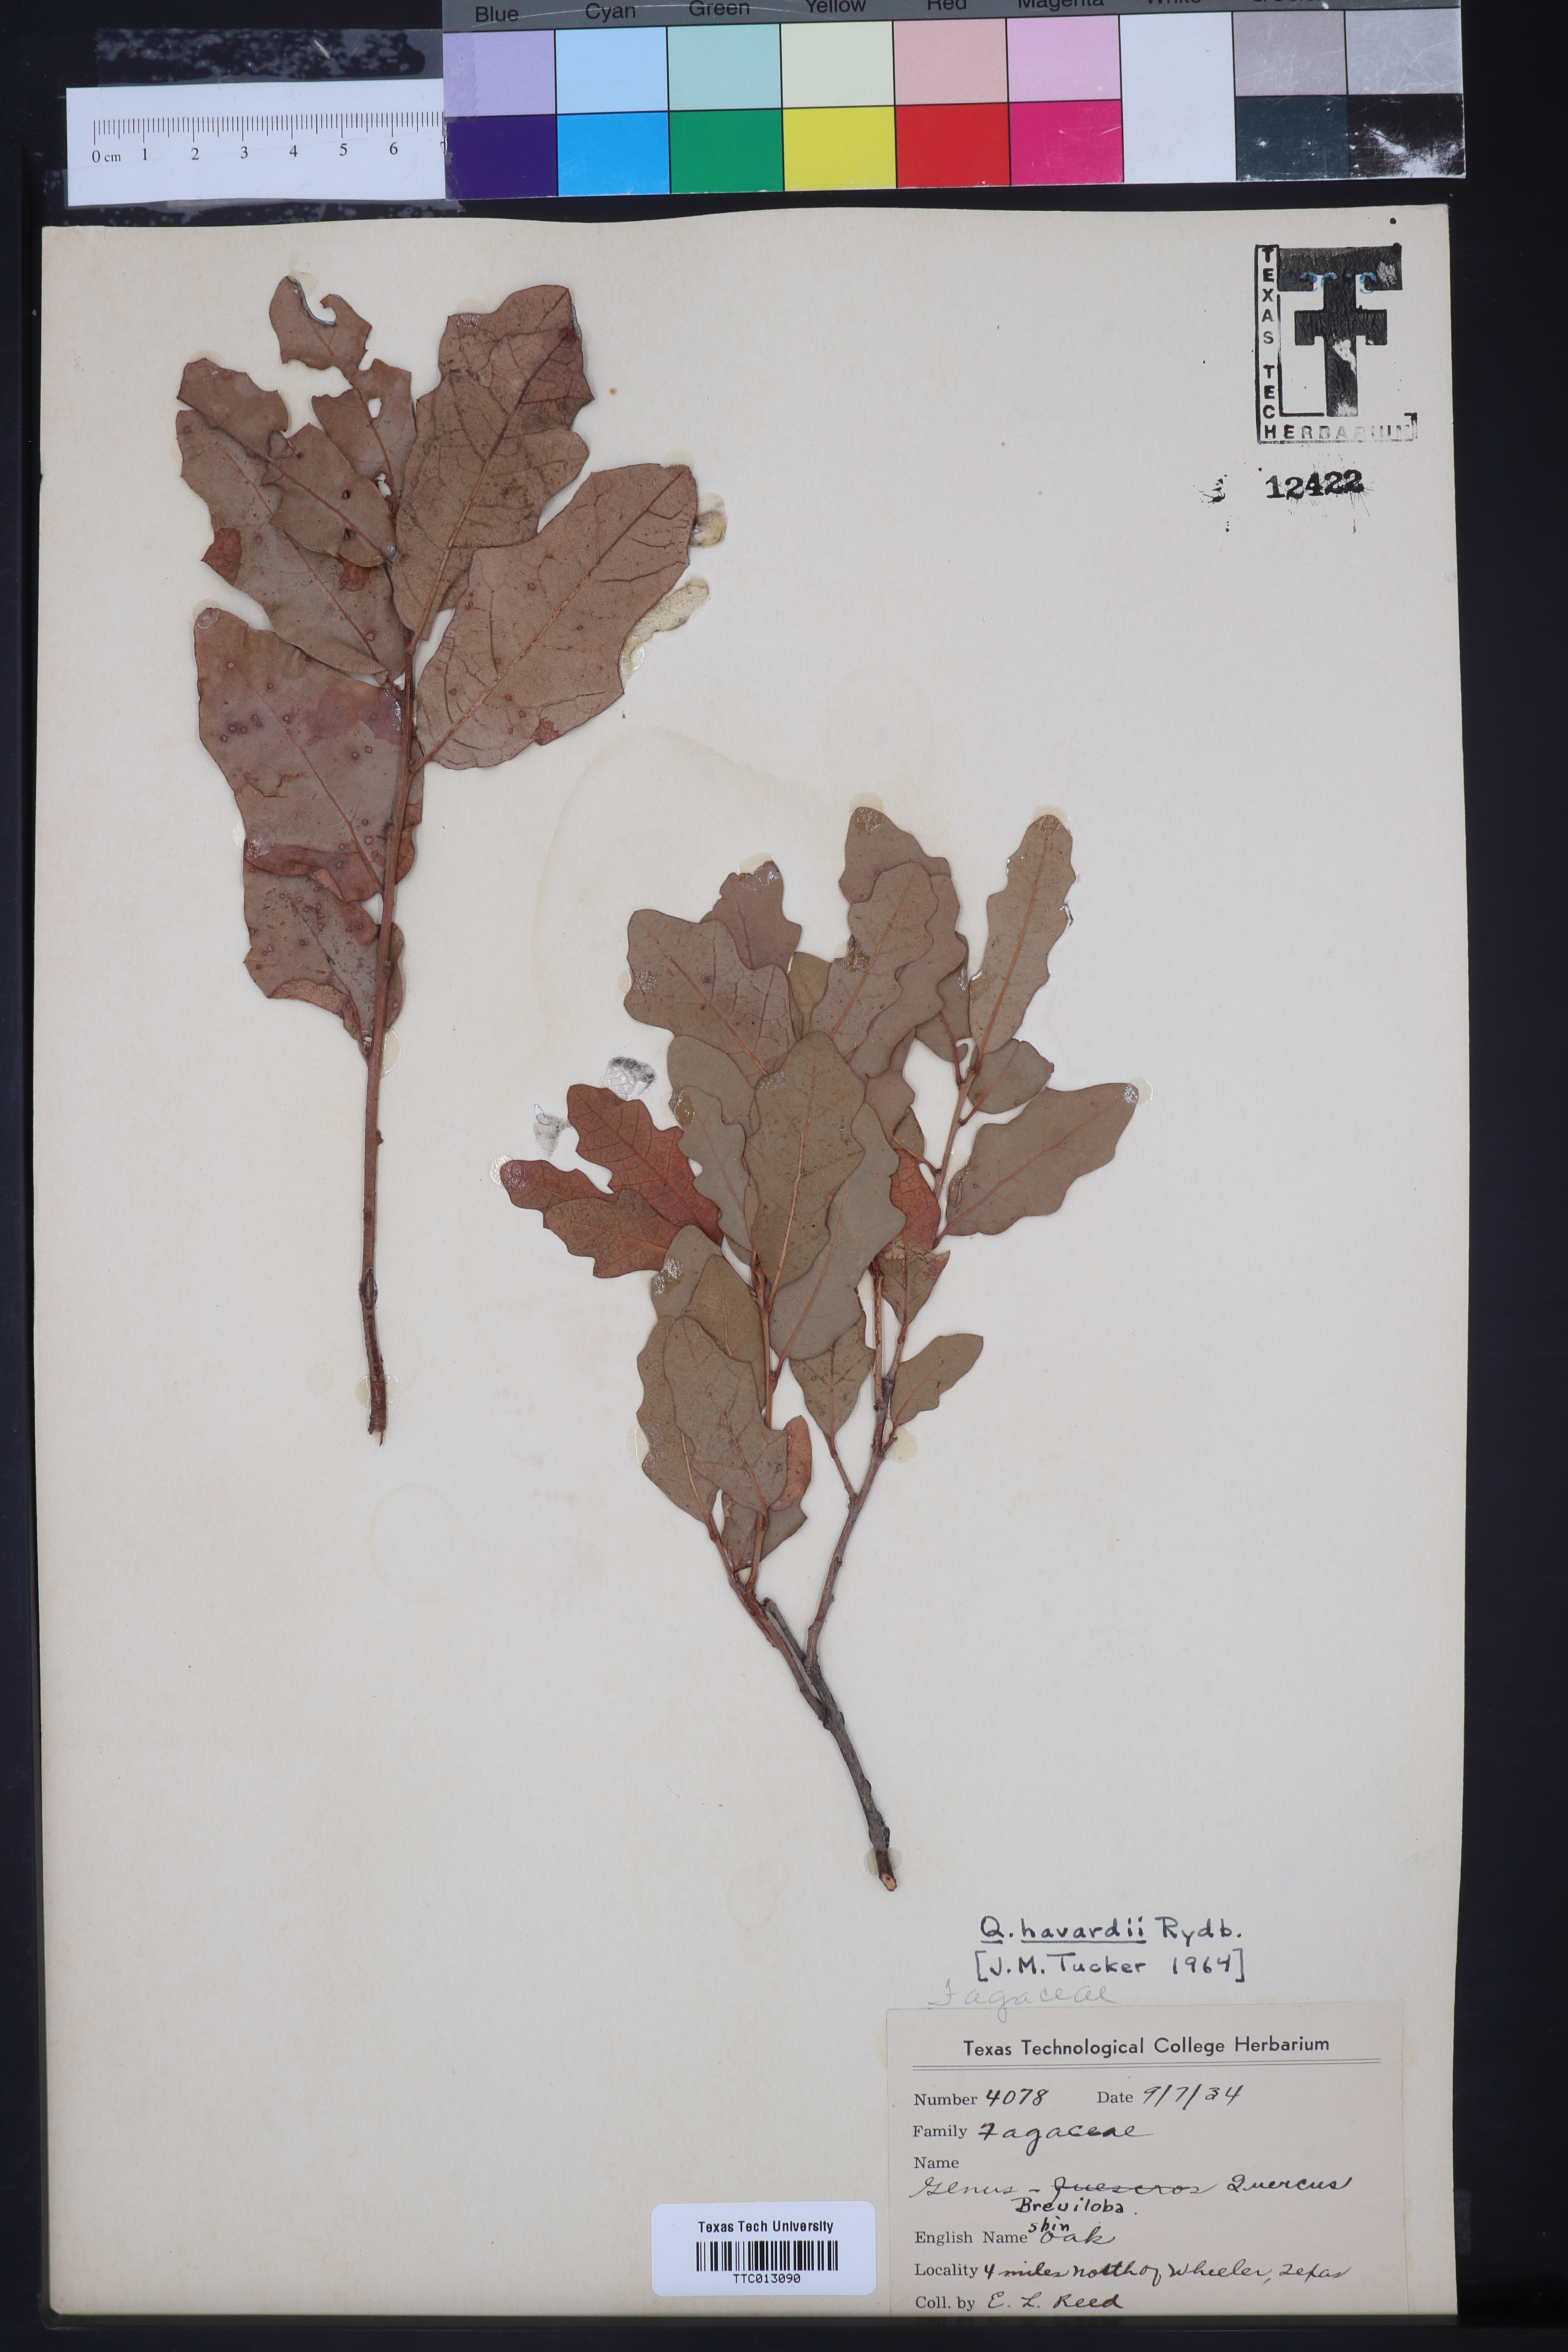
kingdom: Plantae
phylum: Tracheophyta
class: Magnoliopsida
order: Fagales
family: Fagaceae
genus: Quercus
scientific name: Quercus havardii
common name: Shinnery oak
